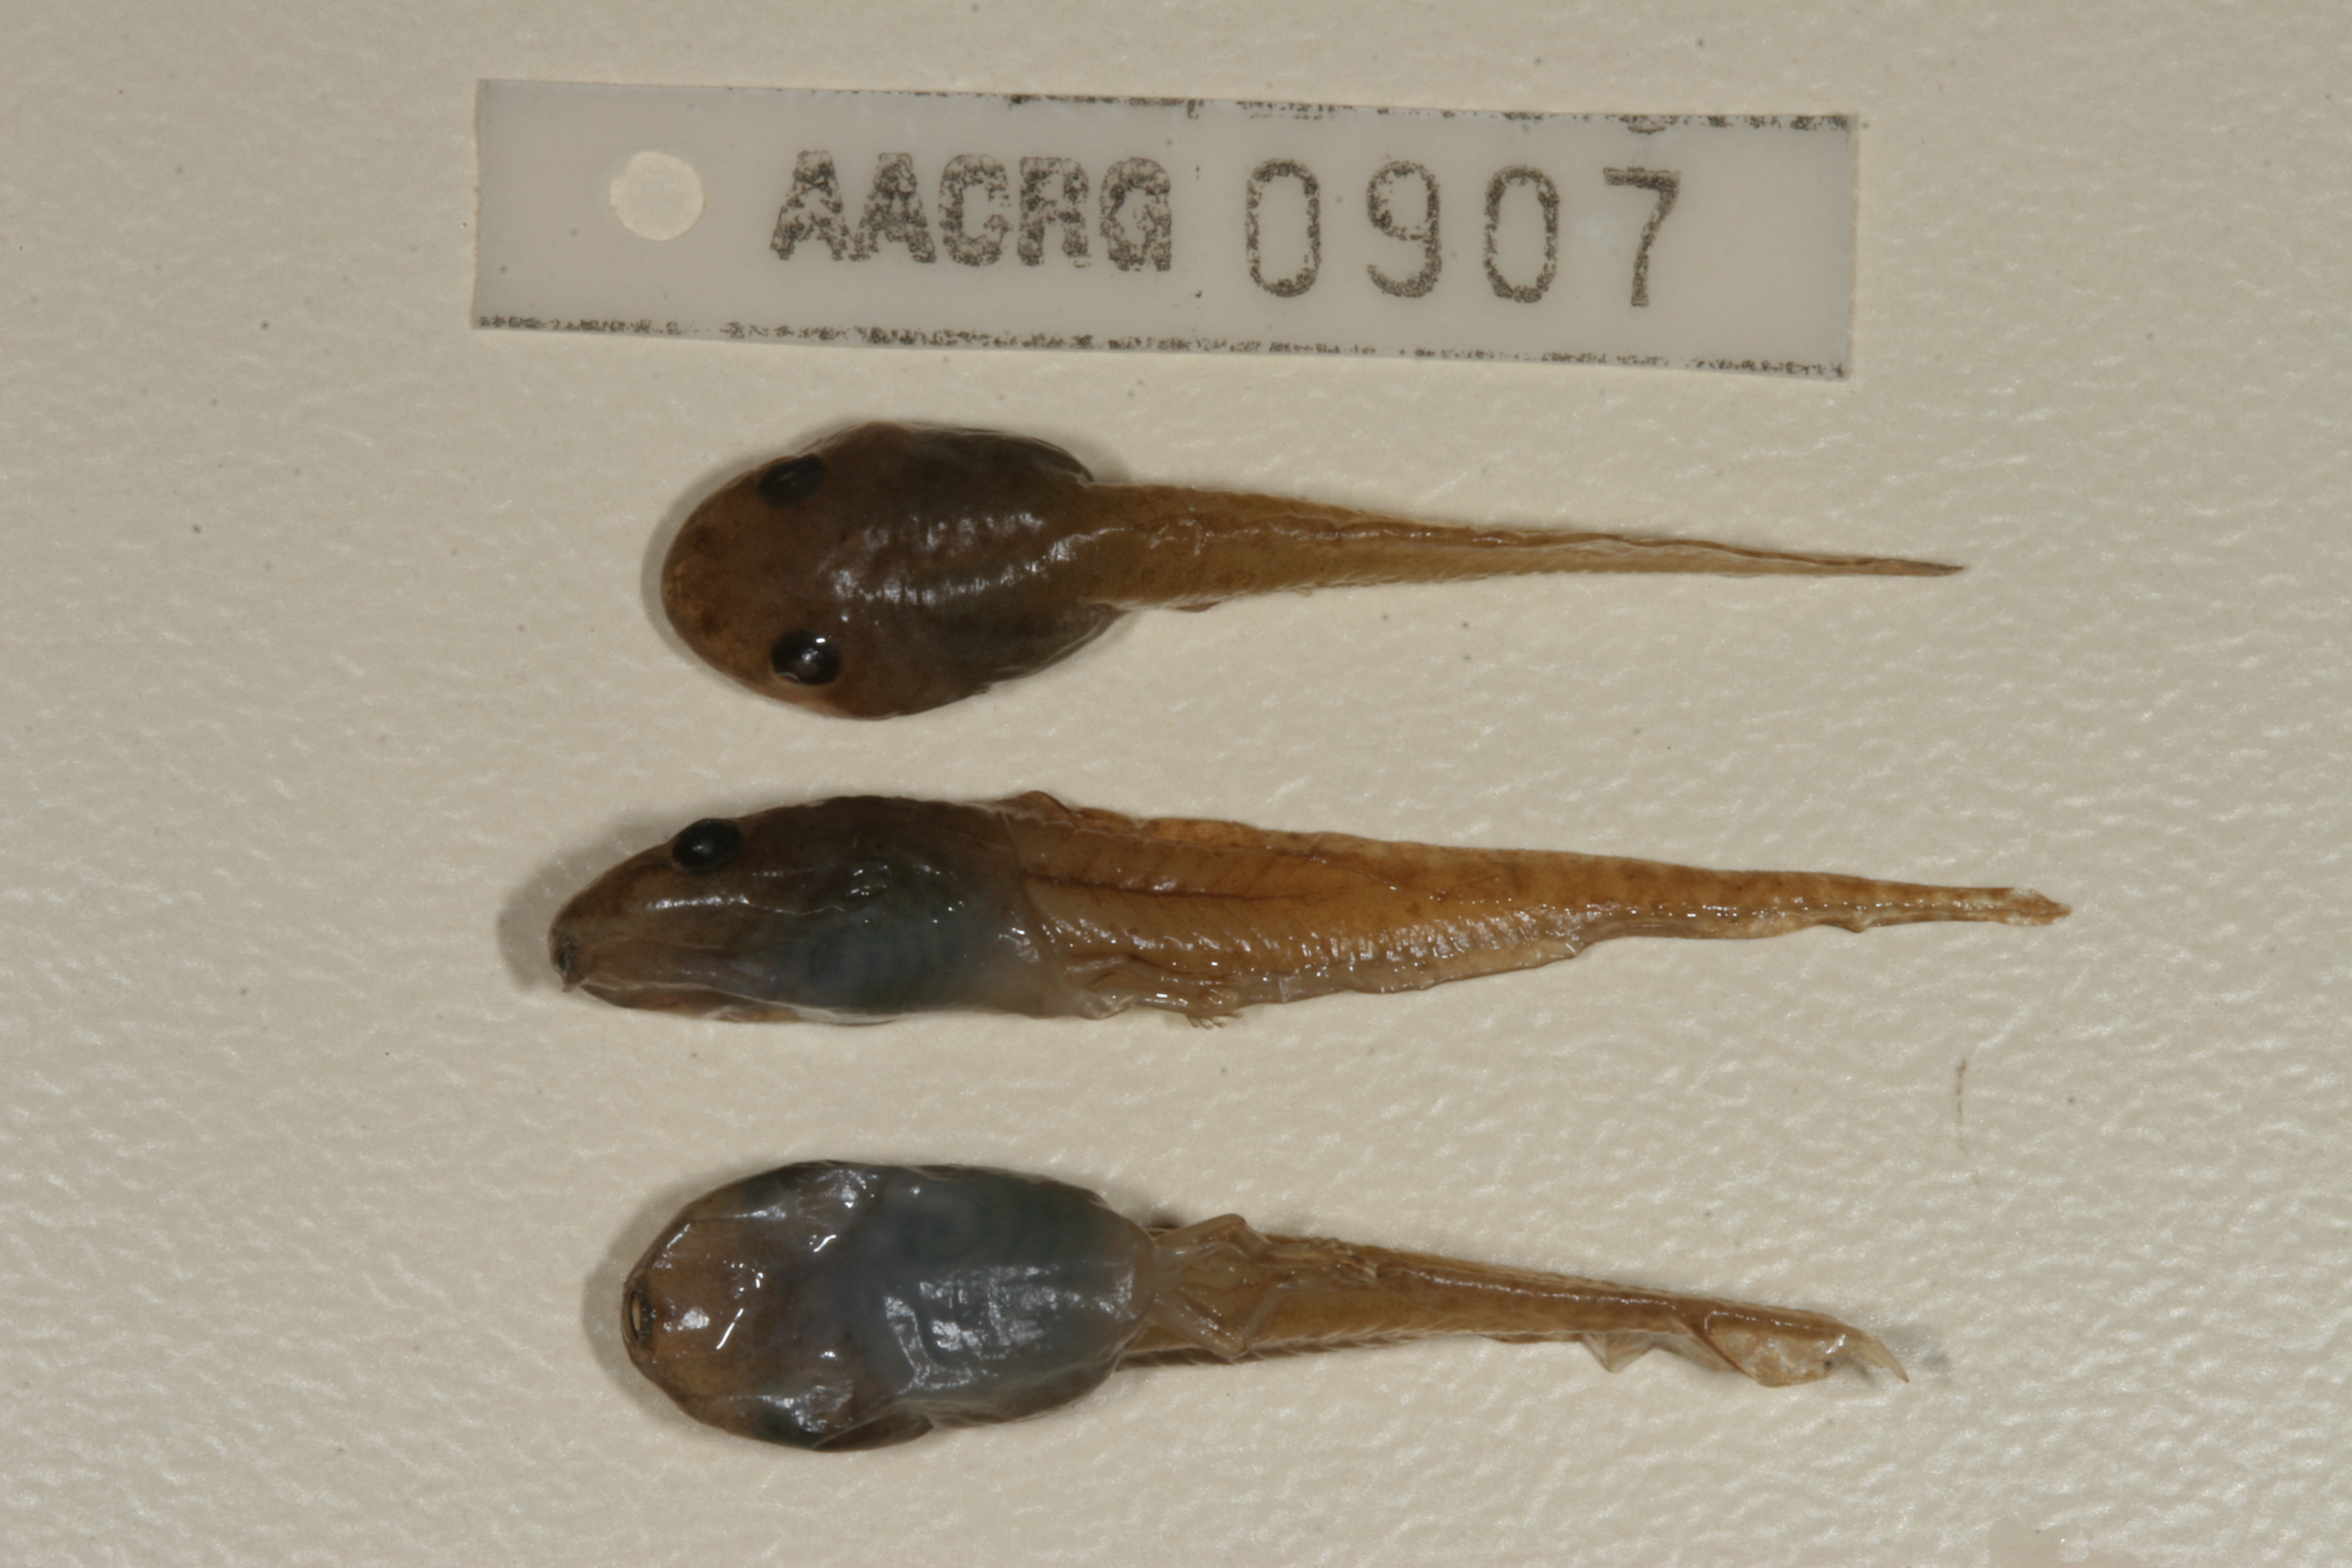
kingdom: Animalia
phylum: Chordata
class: Amphibia
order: Anura
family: Hyperoliidae
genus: Hyperolius
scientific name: Hyperolius marmoratus
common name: Painted reed frog
